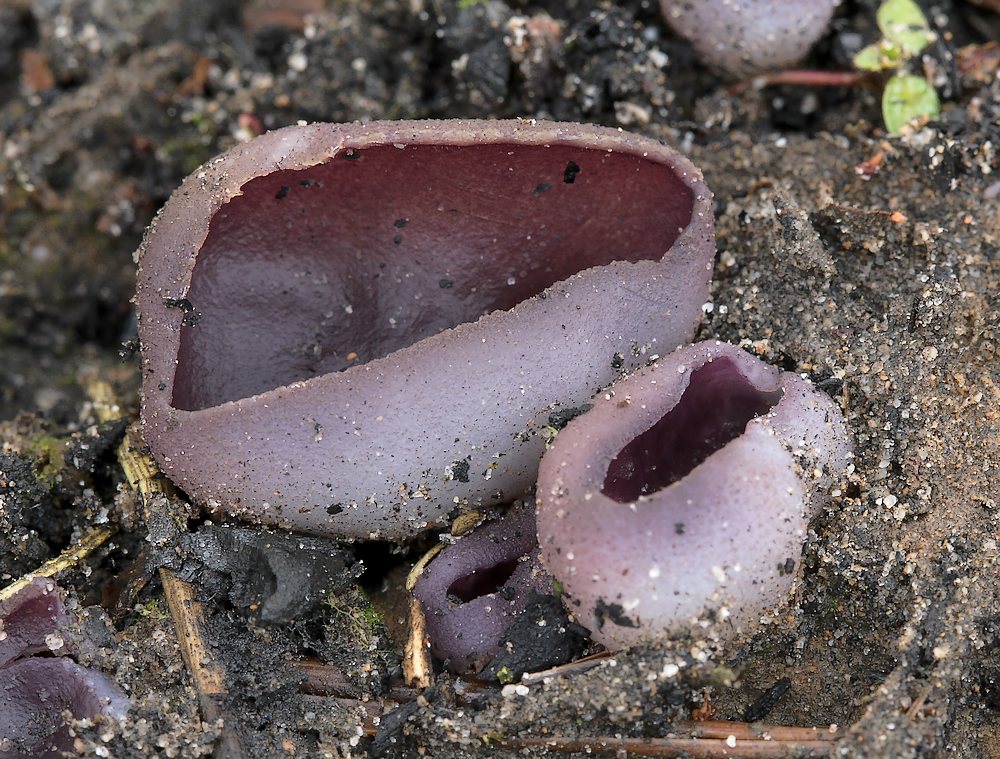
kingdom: Fungi
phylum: Ascomycota
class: Pezizomycetes
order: Pezizales
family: Pezizaceae
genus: Geoscypha
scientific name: Geoscypha tenacella
